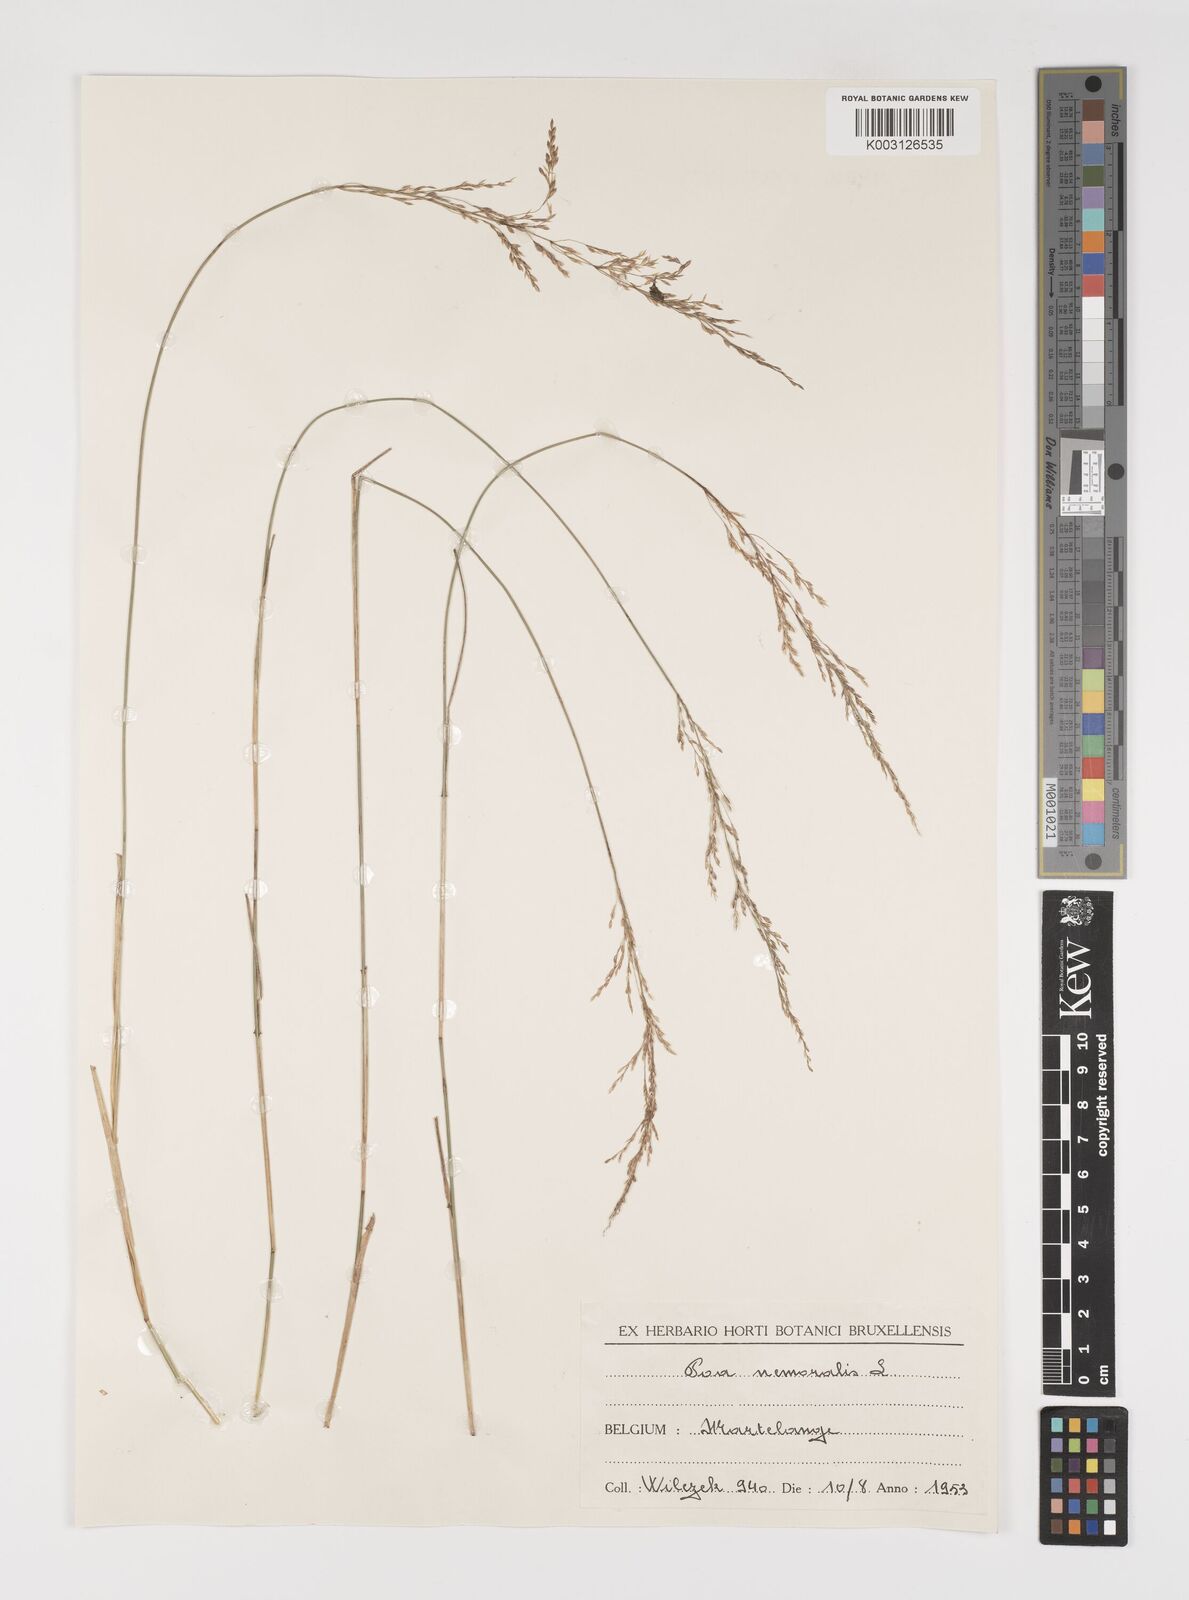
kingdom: Plantae
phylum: Tracheophyta
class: Liliopsida
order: Poales
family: Poaceae
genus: Poa
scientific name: Poa nemoralis
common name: Wood bluegrass
